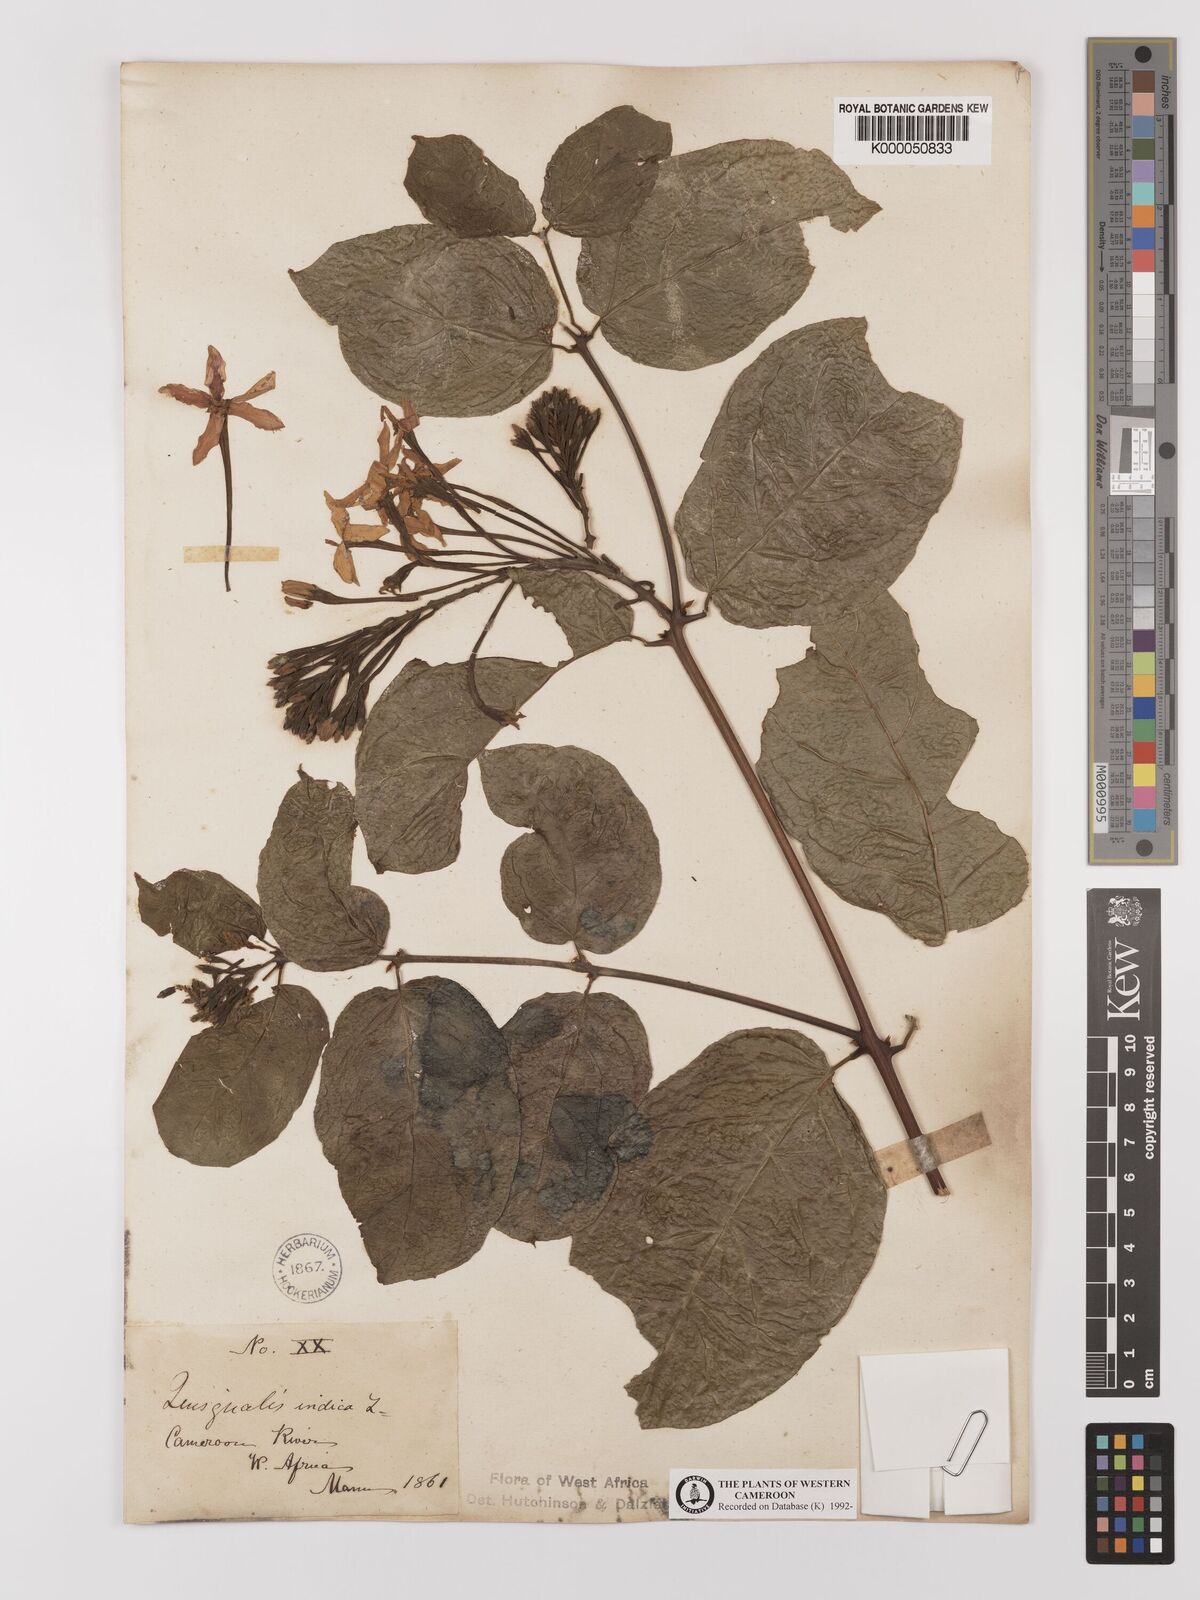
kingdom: Plantae
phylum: Tracheophyta
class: Magnoliopsida
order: Myrtales
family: Combretaceae
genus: Combretum
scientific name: Combretum indicum
